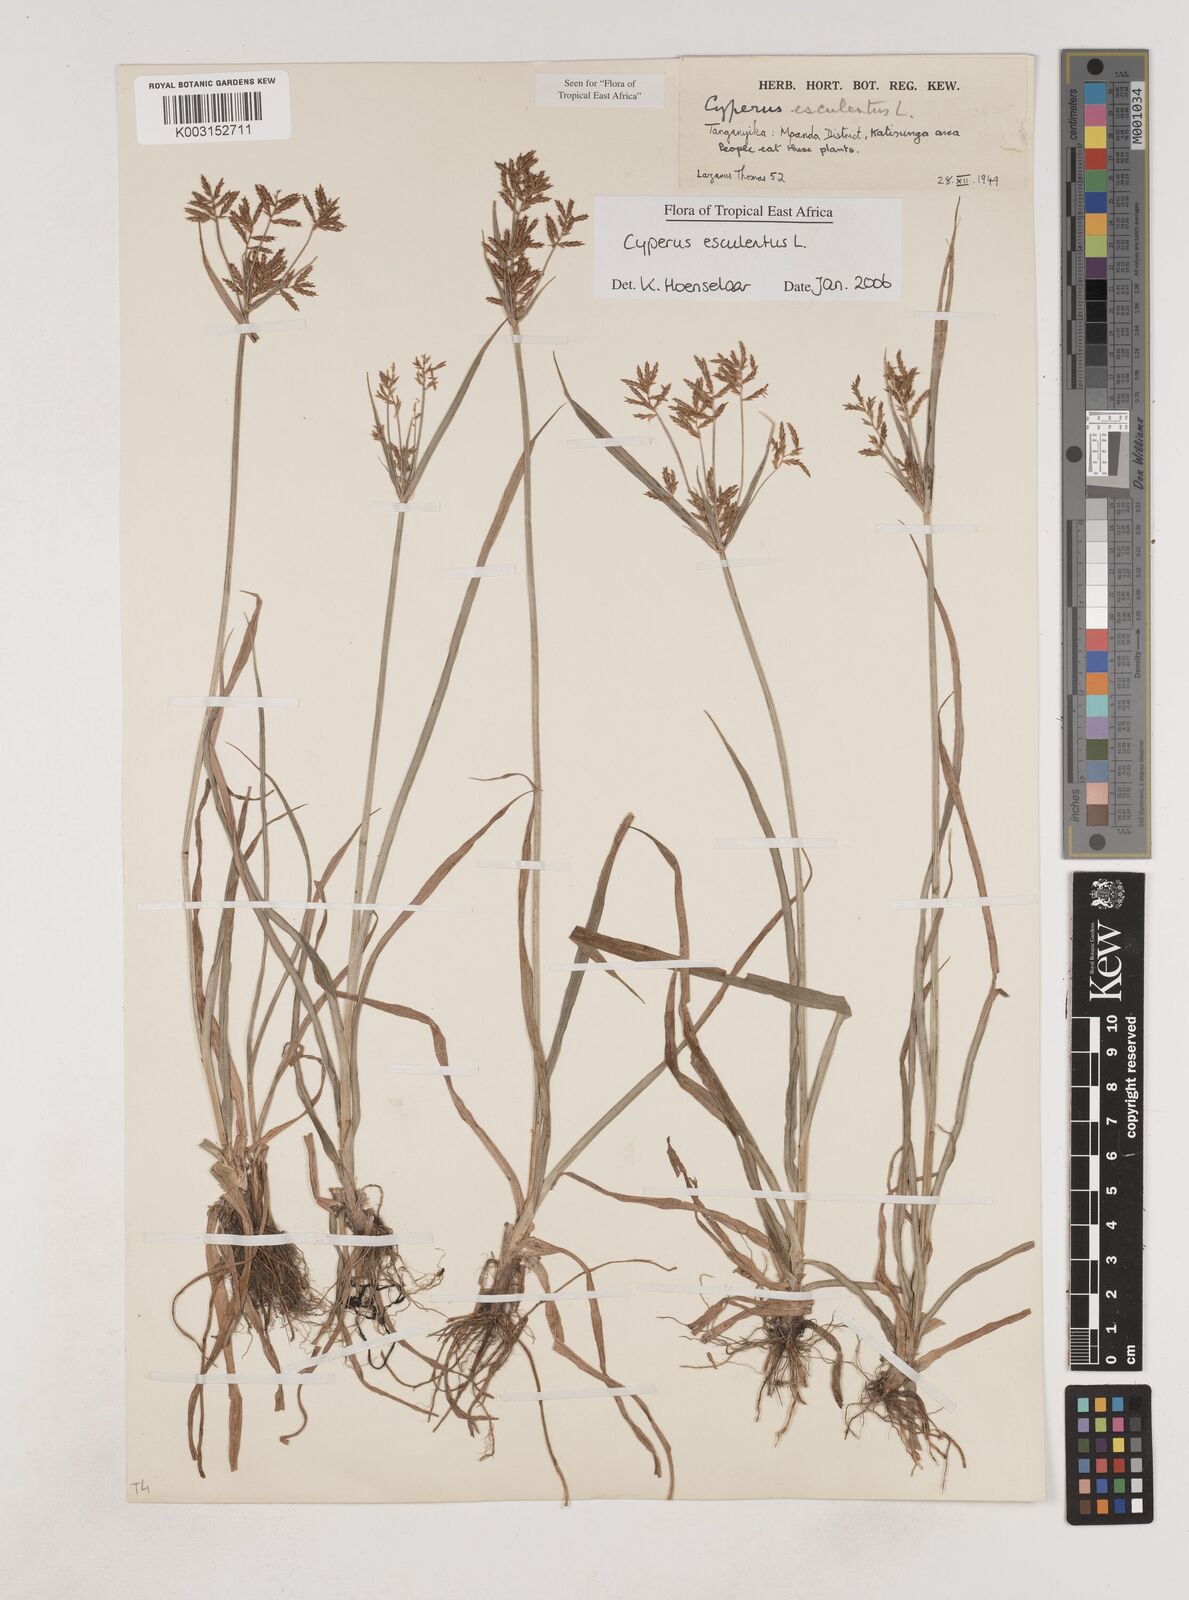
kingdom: Plantae
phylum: Tracheophyta
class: Liliopsida
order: Poales
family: Cyperaceae
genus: Cyperus
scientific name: Cyperus esculentus
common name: Yellow nutsedge
